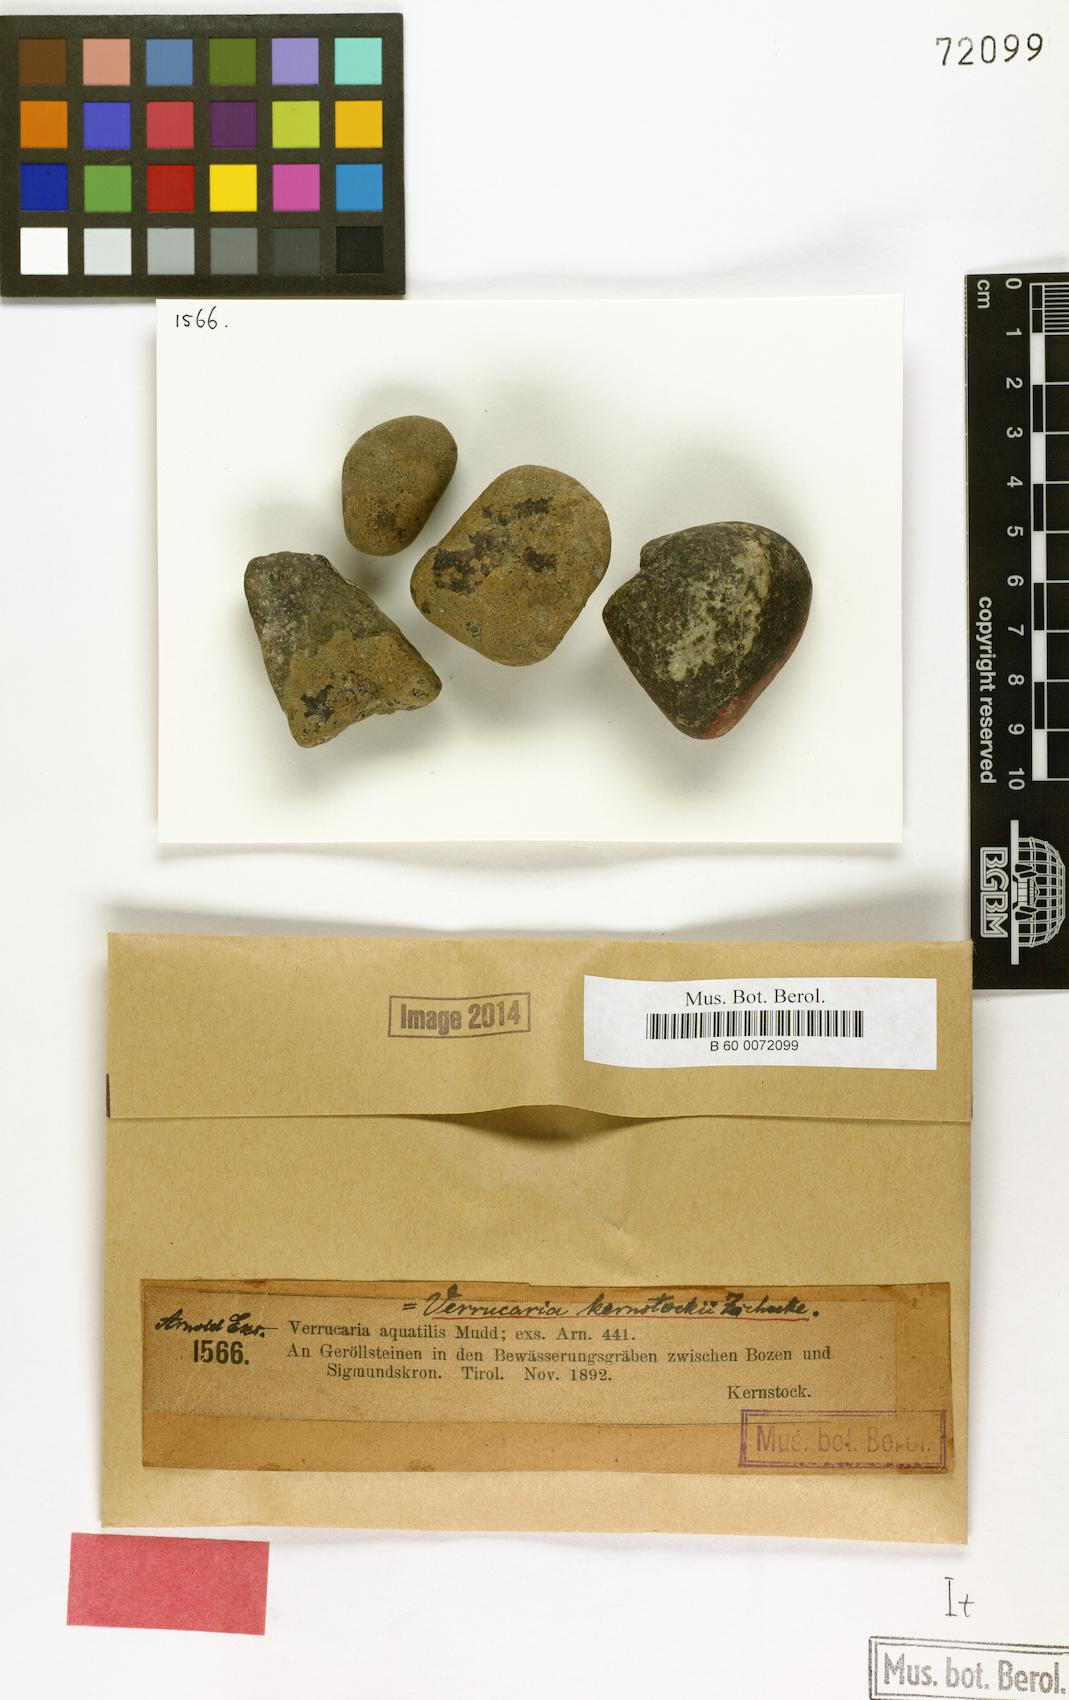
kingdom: Fungi
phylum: Ascomycota
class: Eurotiomycetes
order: Verrucariales
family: Verrucariaceae
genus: Hydropunctaria
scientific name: Hydropunctaria rheitrophila
